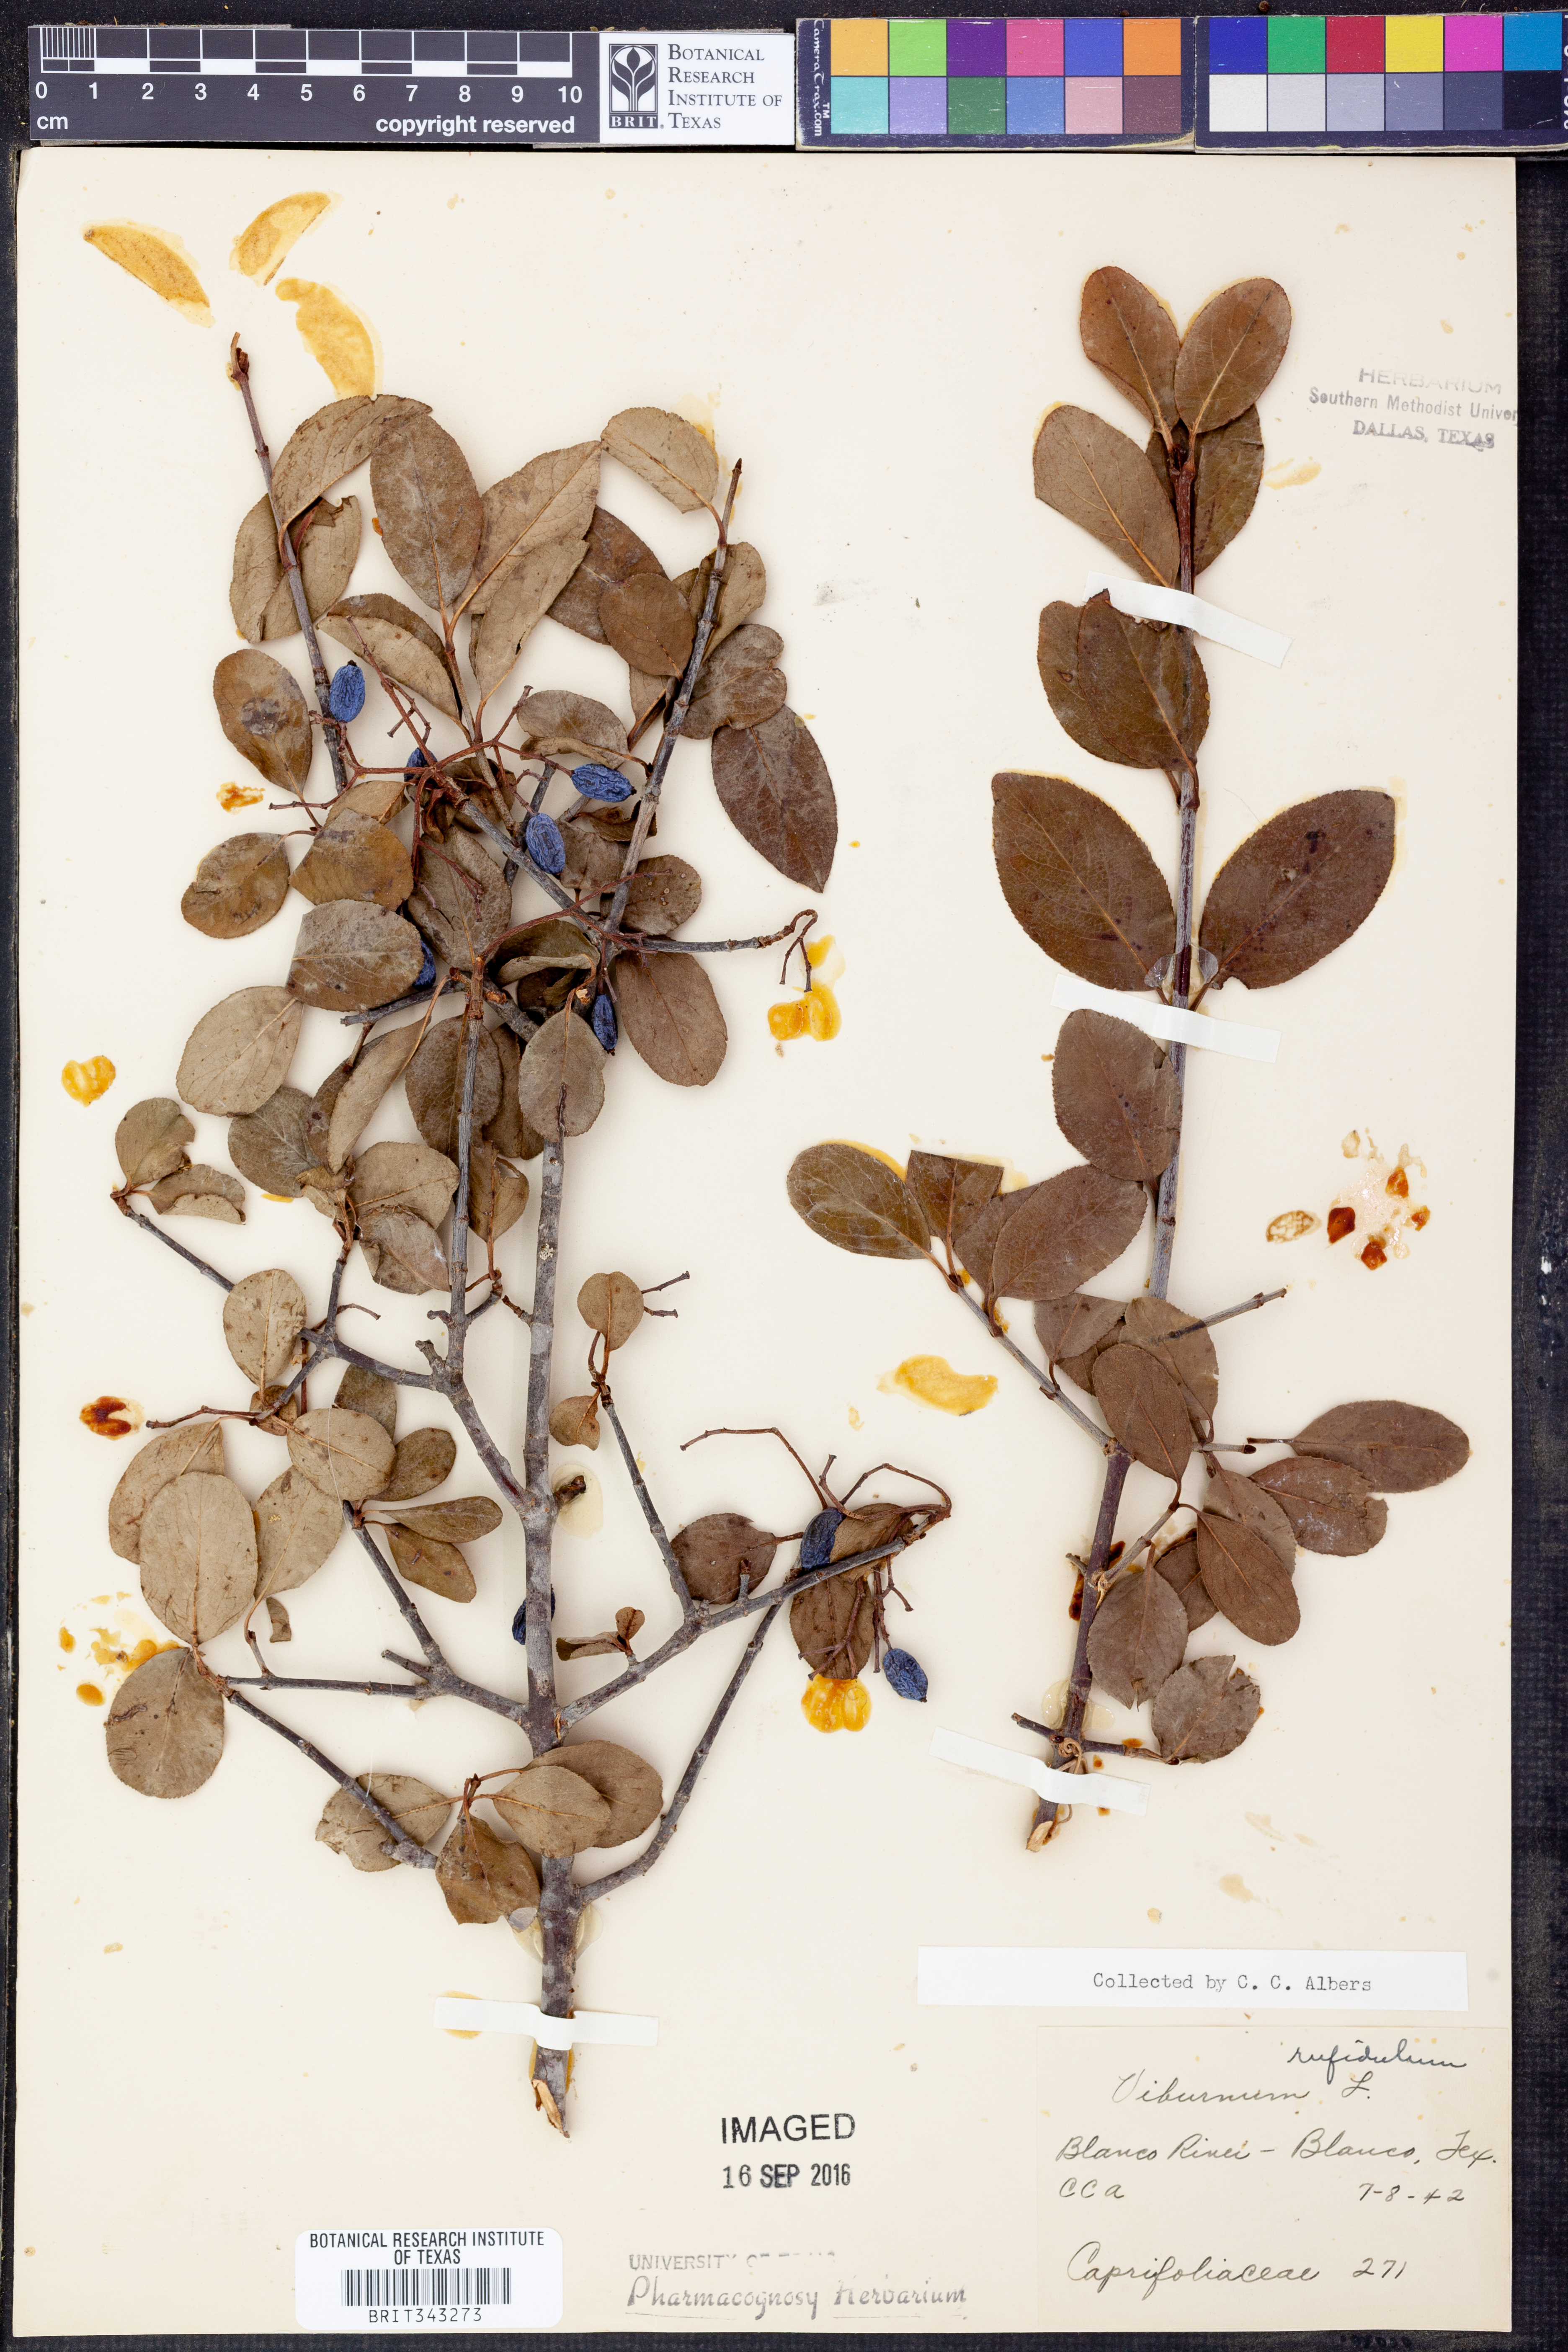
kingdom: Plantae
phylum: Tracheophyta
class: Magnoliopsida
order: Dipsacales
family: Viburnaceae
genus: Viburnum
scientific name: Viburnum rufidulum
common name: Blue haw
